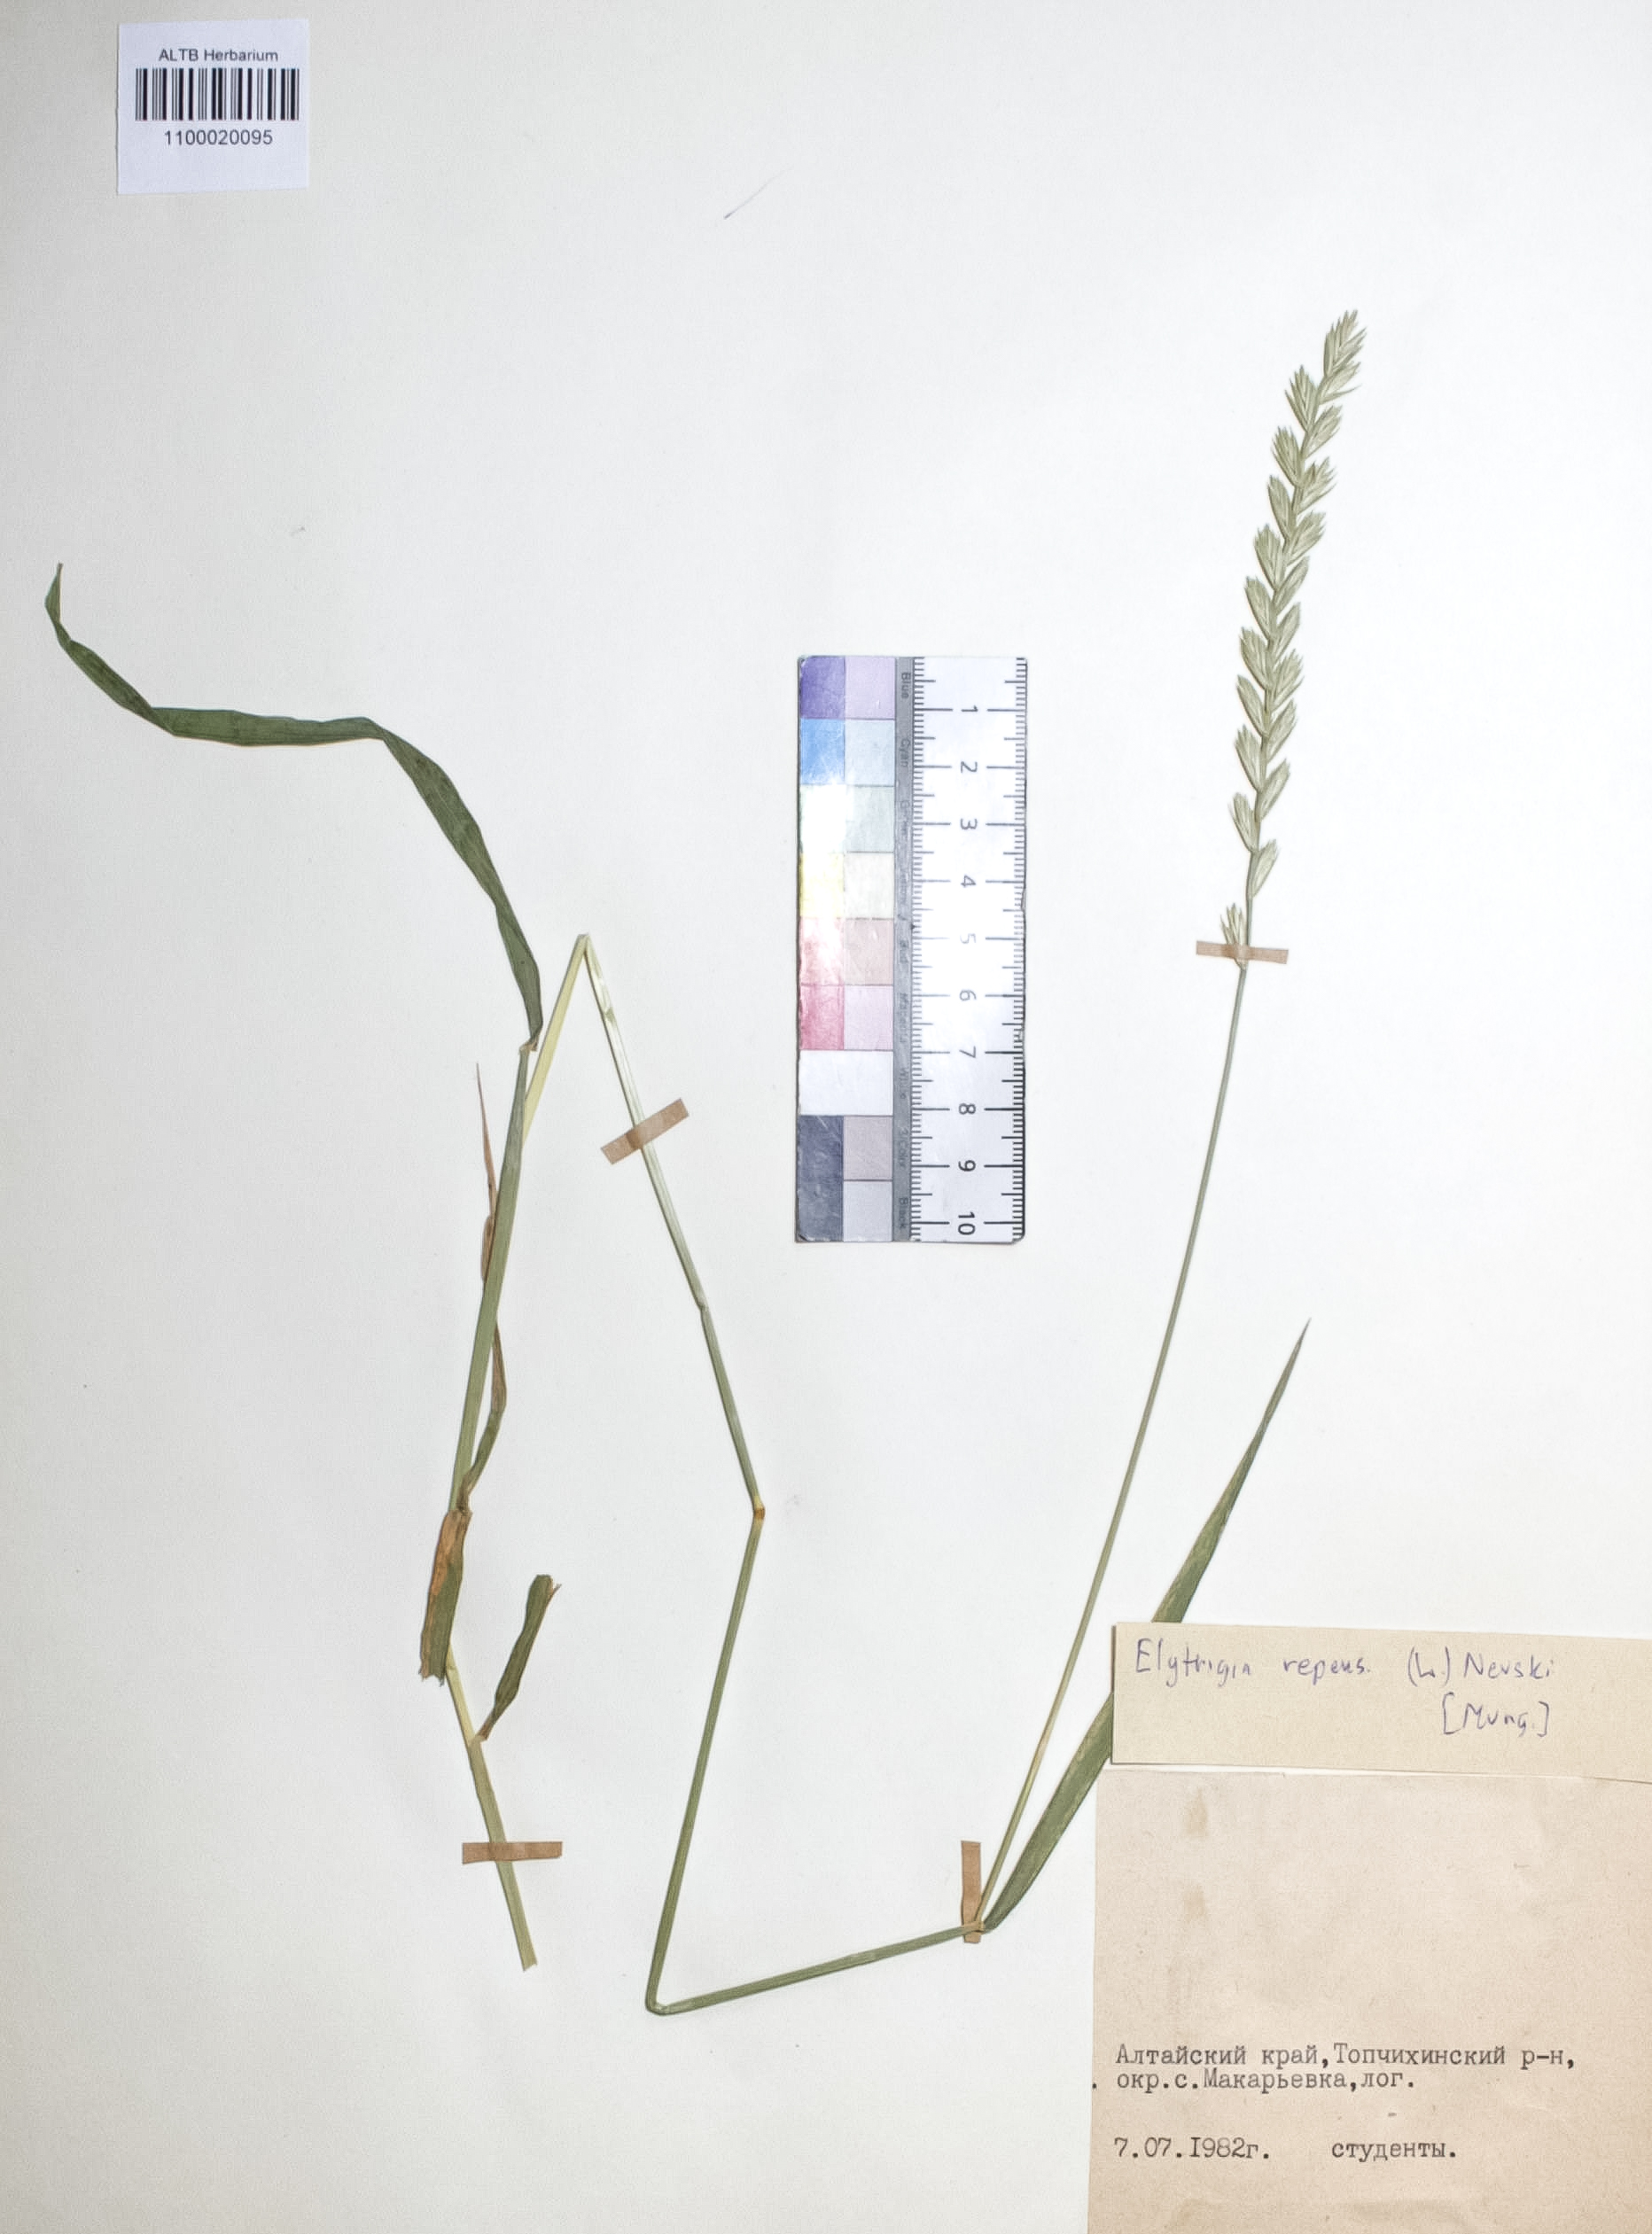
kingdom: Plantae
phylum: Tracheophyta
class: Liliopsida
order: Poales
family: Poaceae
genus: Elymus
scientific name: Elymus repens
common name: Quackgrass
